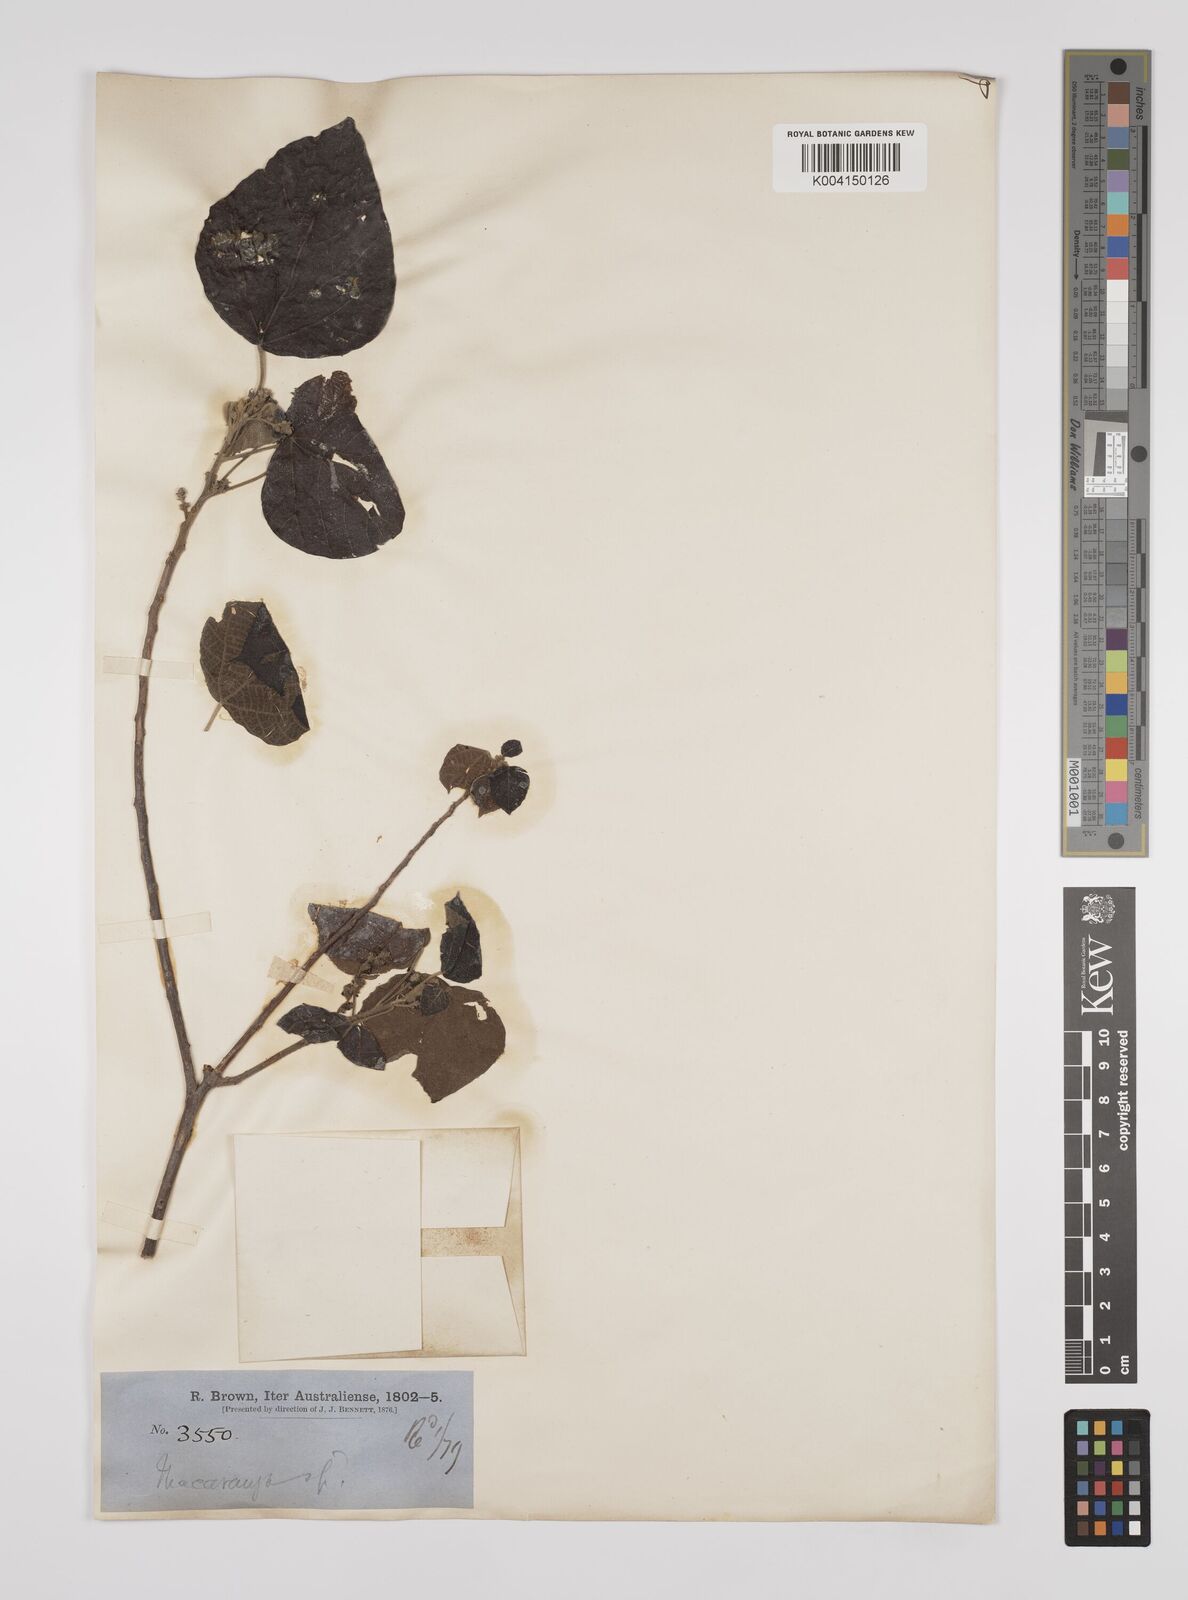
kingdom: Plantae
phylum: Tracheophyta
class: Magnoliopsida
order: Malpighiales
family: Euphorbiaceae
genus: Macaranga
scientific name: Macaranga involucrata
